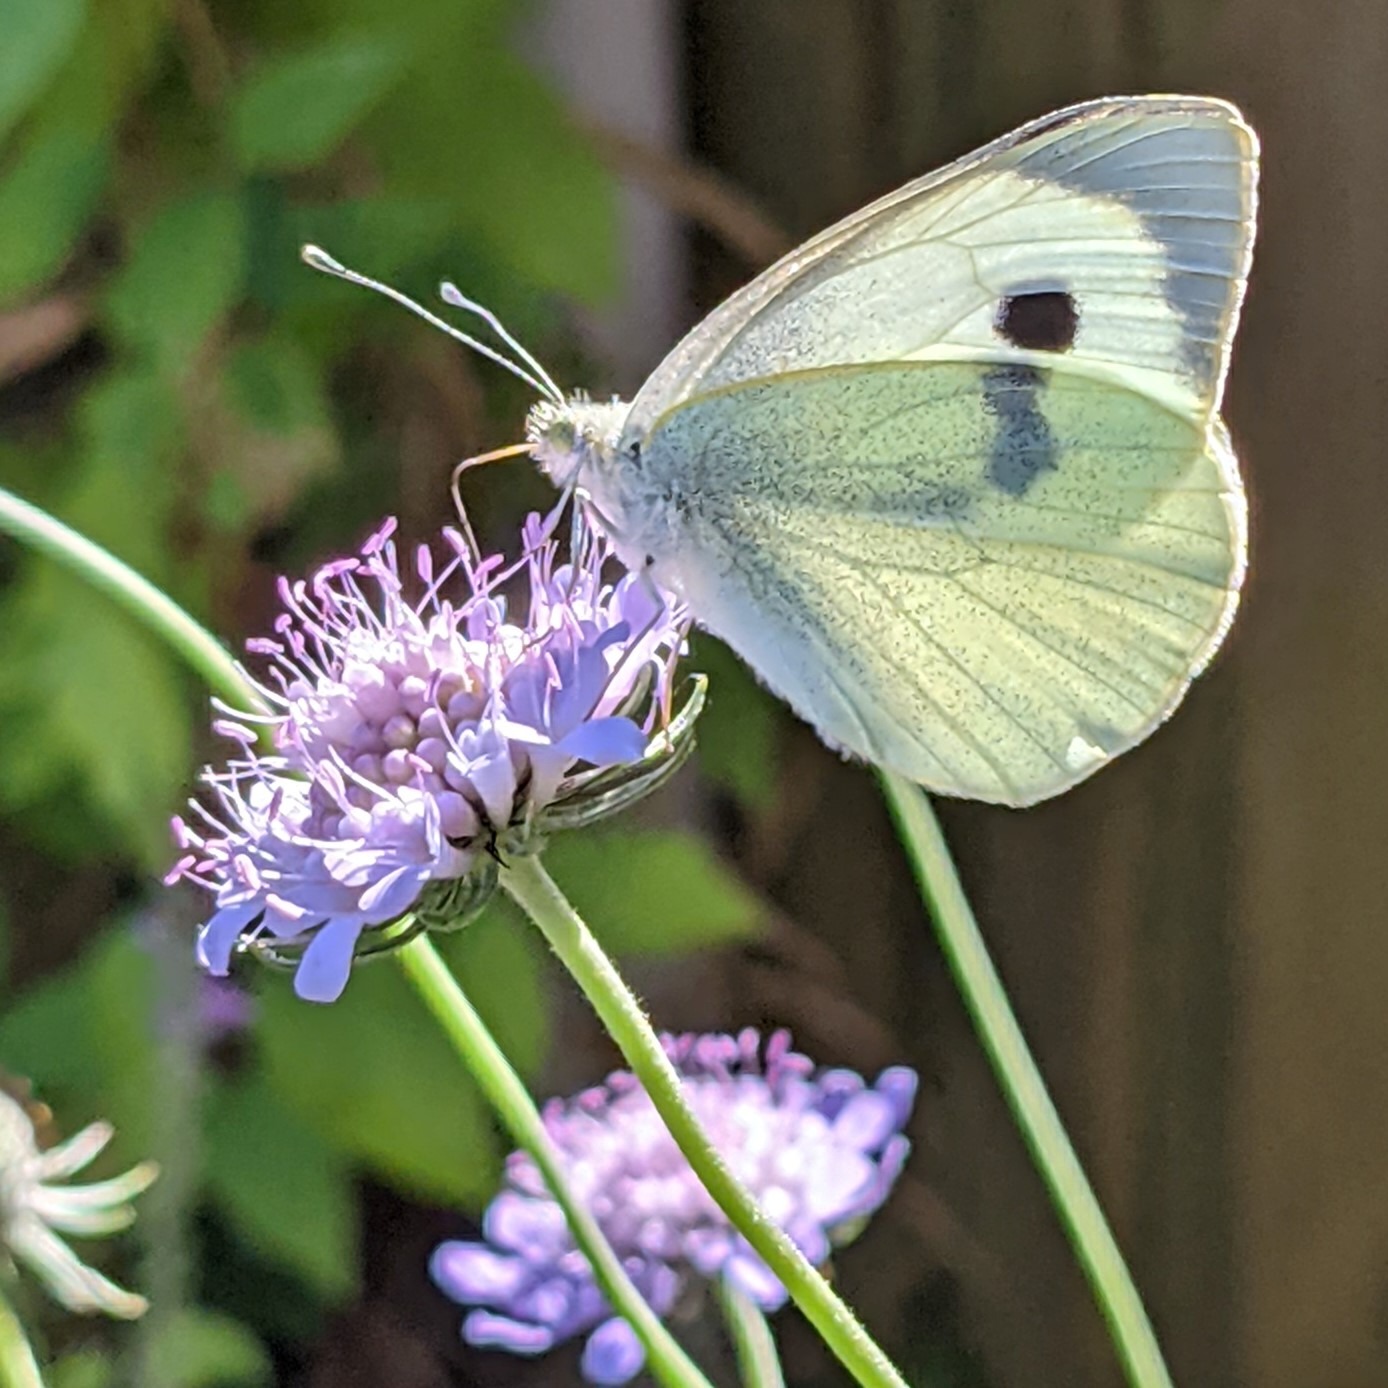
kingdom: Animalia
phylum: Arthropoda
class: Insecta
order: Lepidoptera
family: Pieridae
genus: Pieris
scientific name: Pieris brassicae
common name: Stor kålsommerfugl
